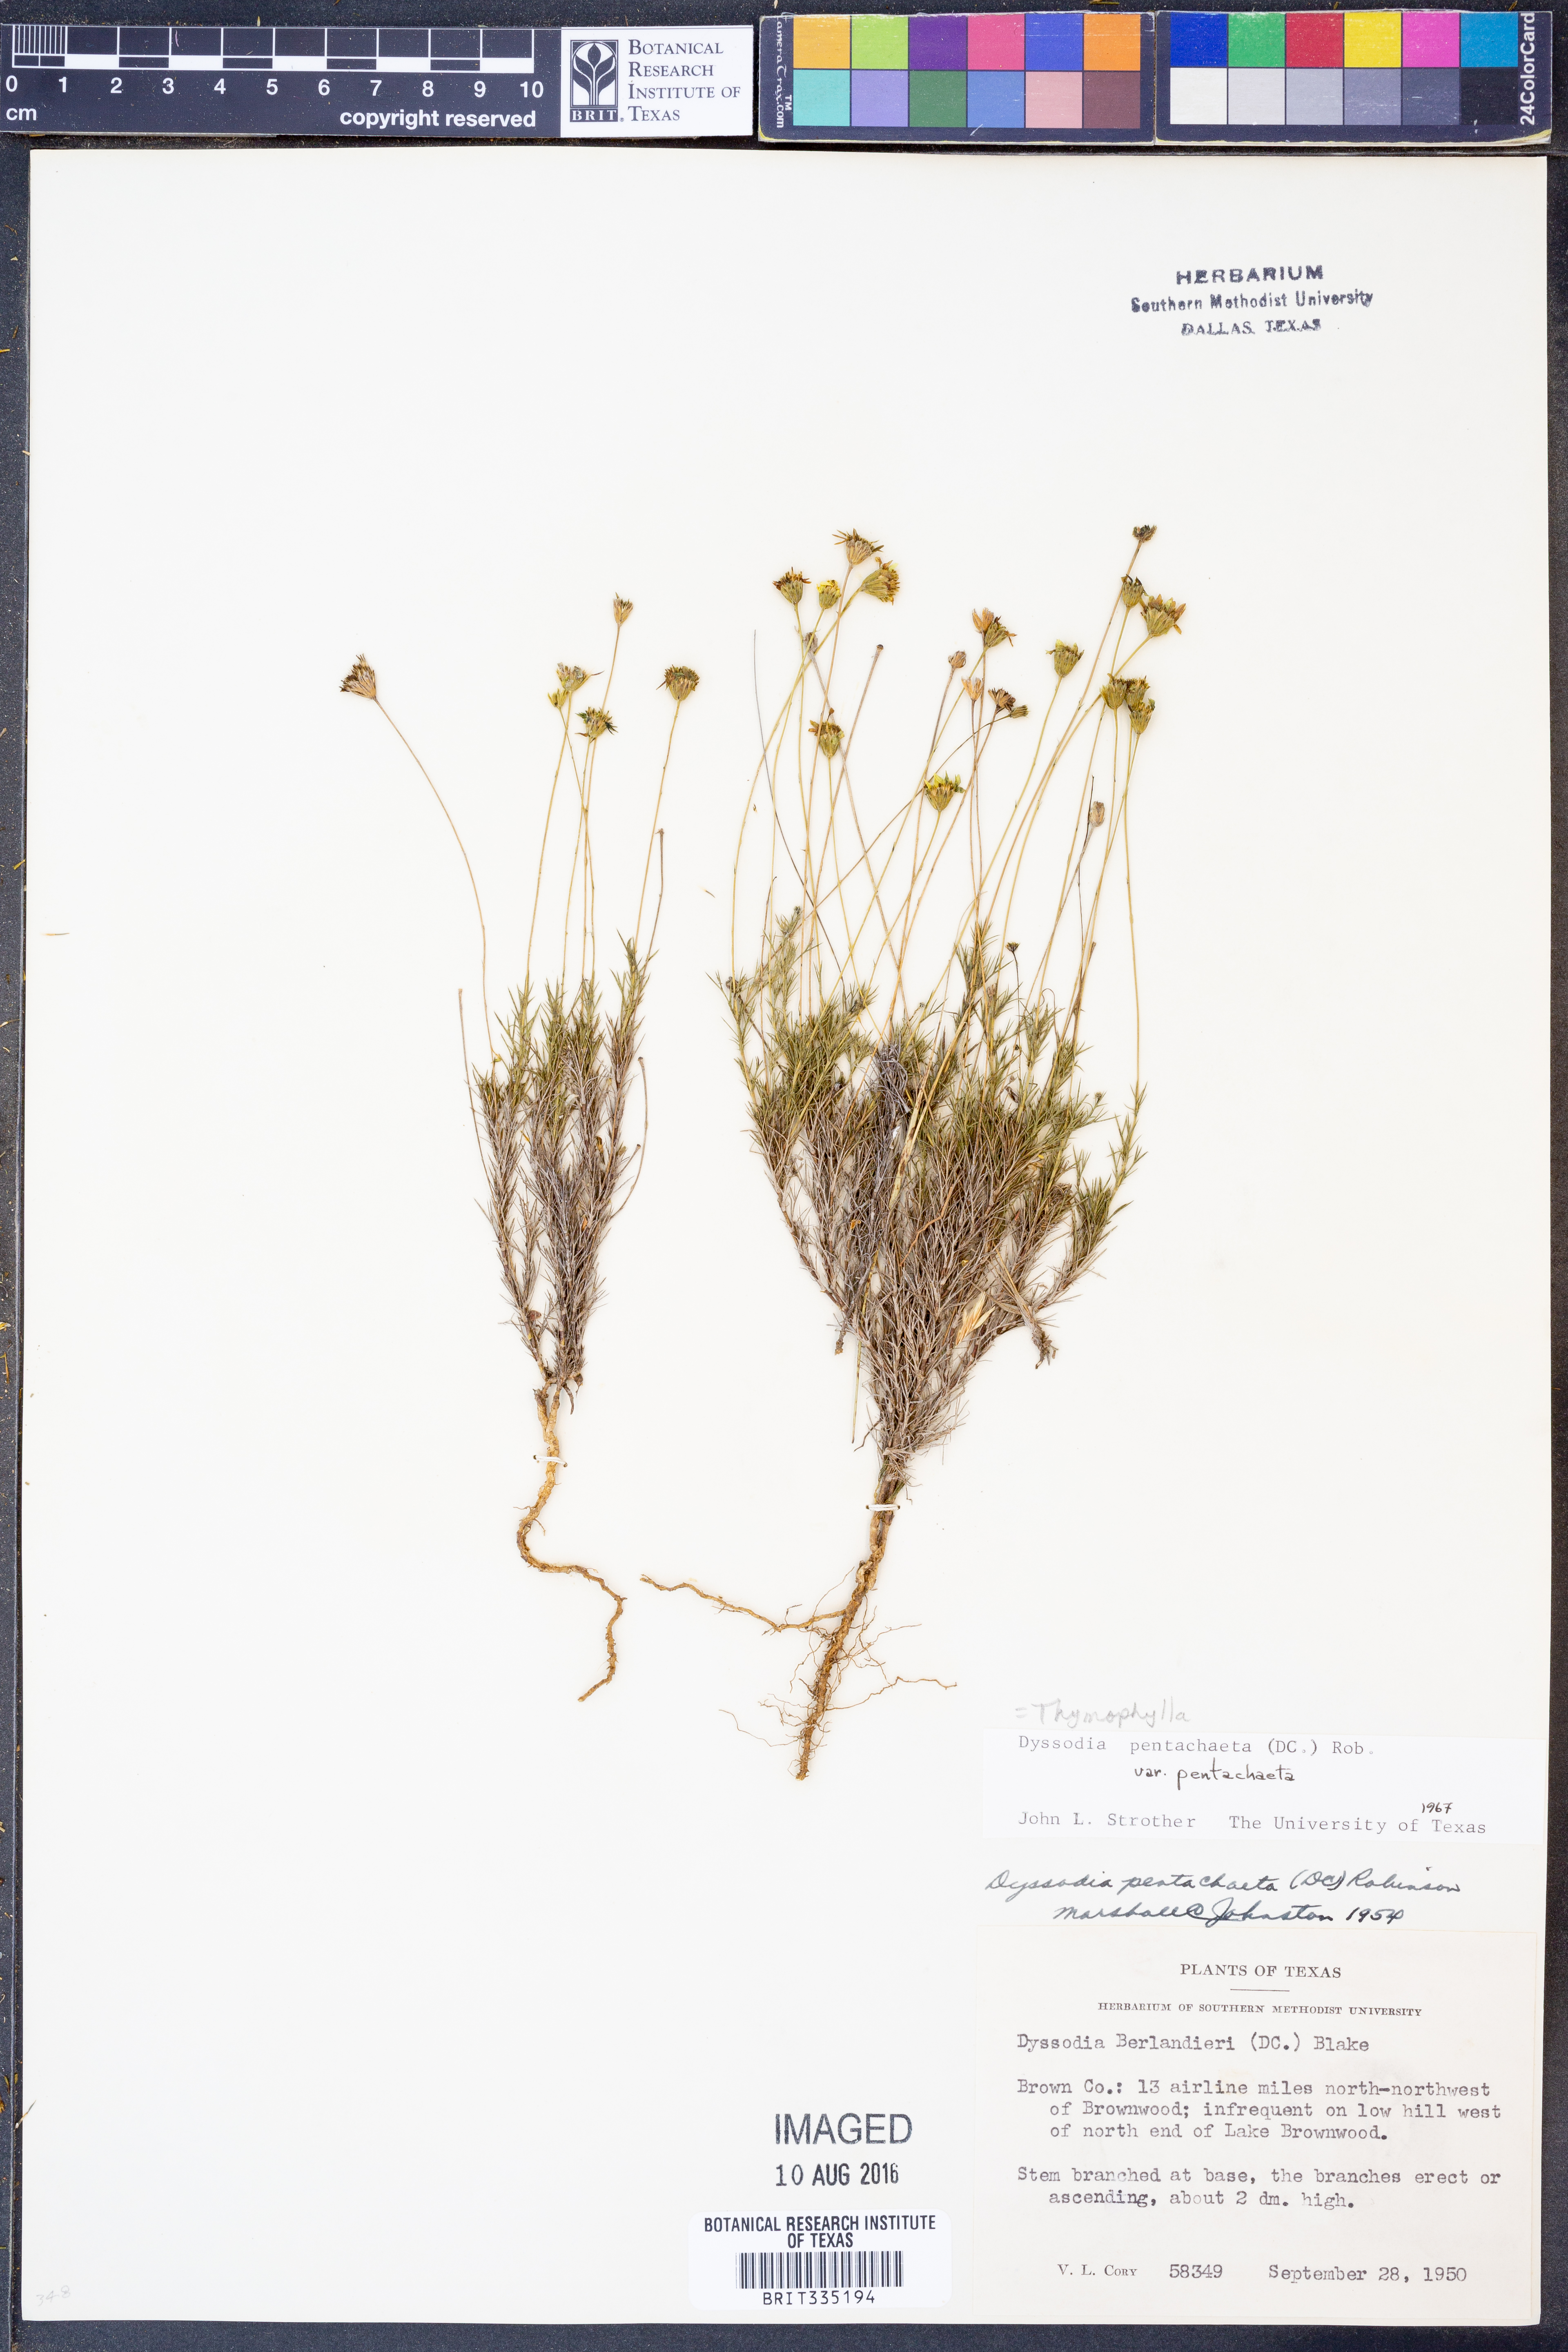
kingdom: Plantae
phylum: Tracheophyta
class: Magnoliopsida
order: Asterales
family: Asteraceae
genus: Thymophylla
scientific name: Thymophylla pentachaeta
